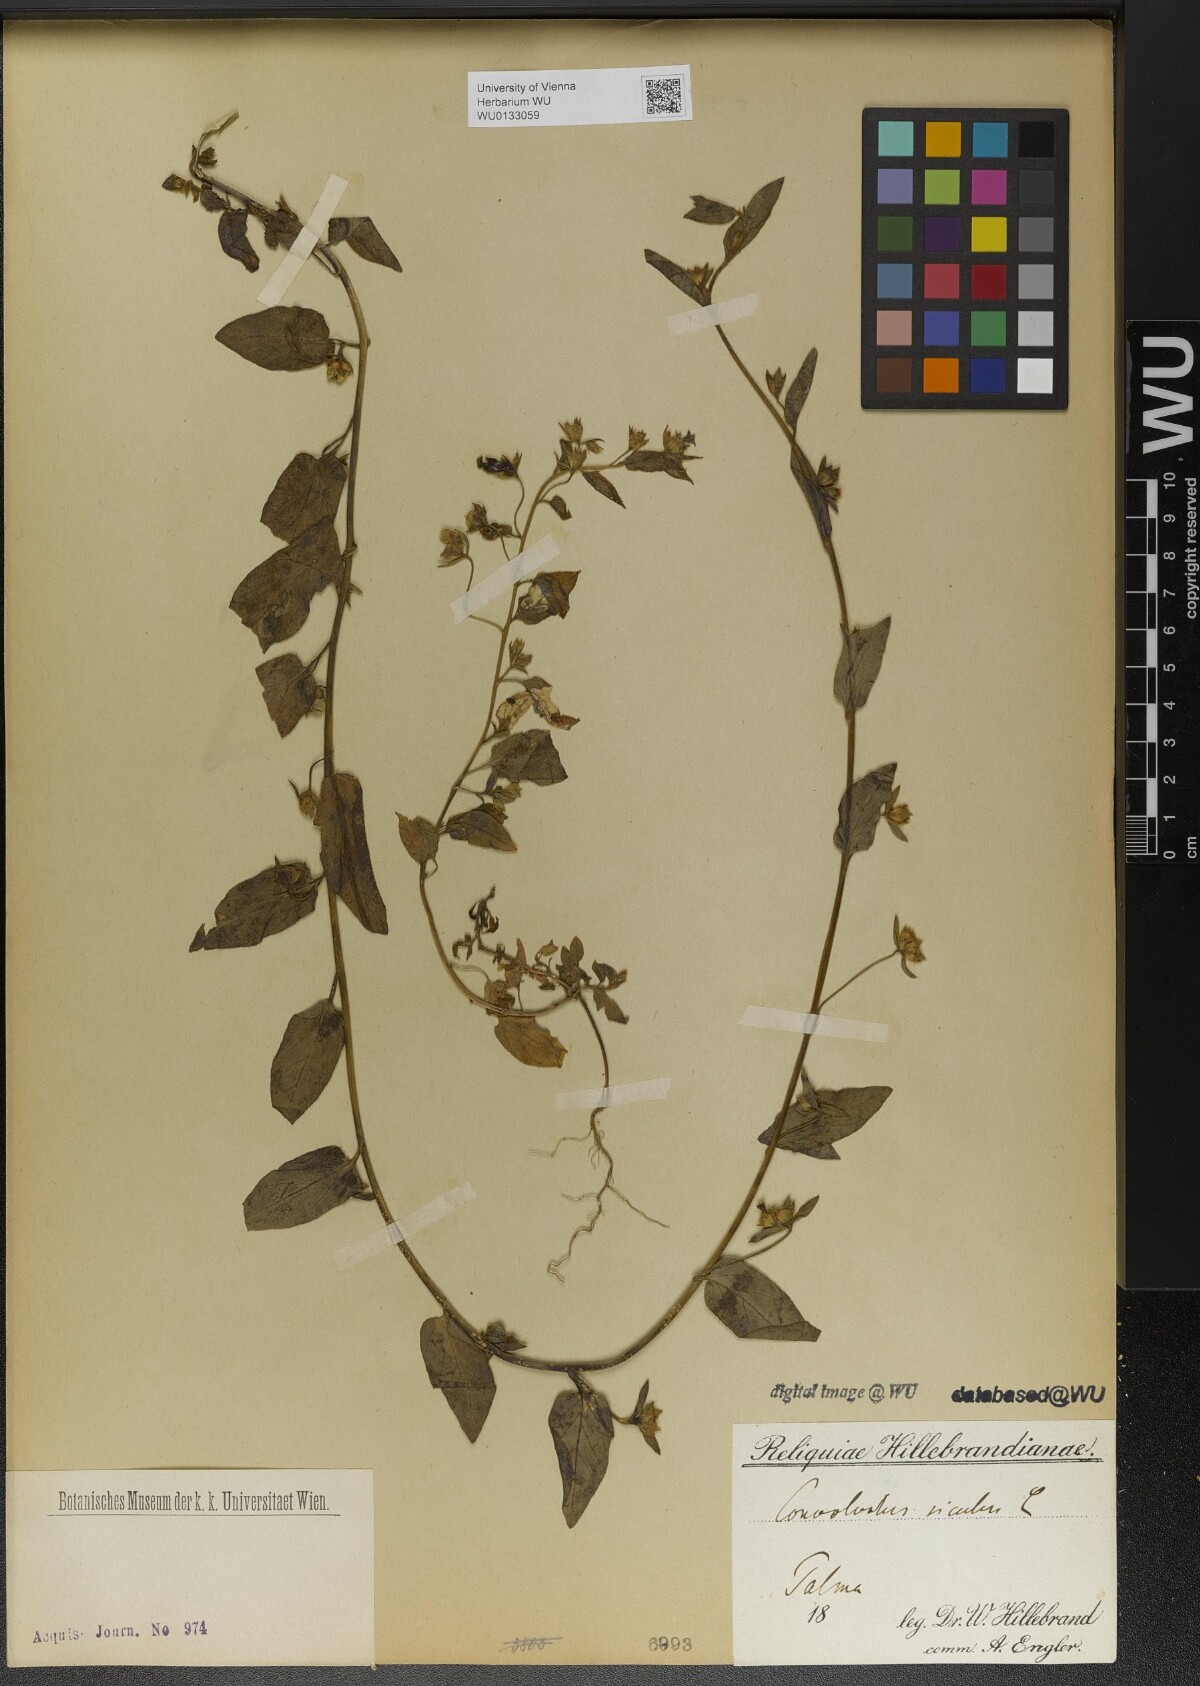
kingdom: Plantae
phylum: Tracheophyta
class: Magnoliopsida
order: Solanales
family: Convolvulaceae
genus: Convolvulus
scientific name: Convolvulus siculus
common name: Small blue-convolvulus
